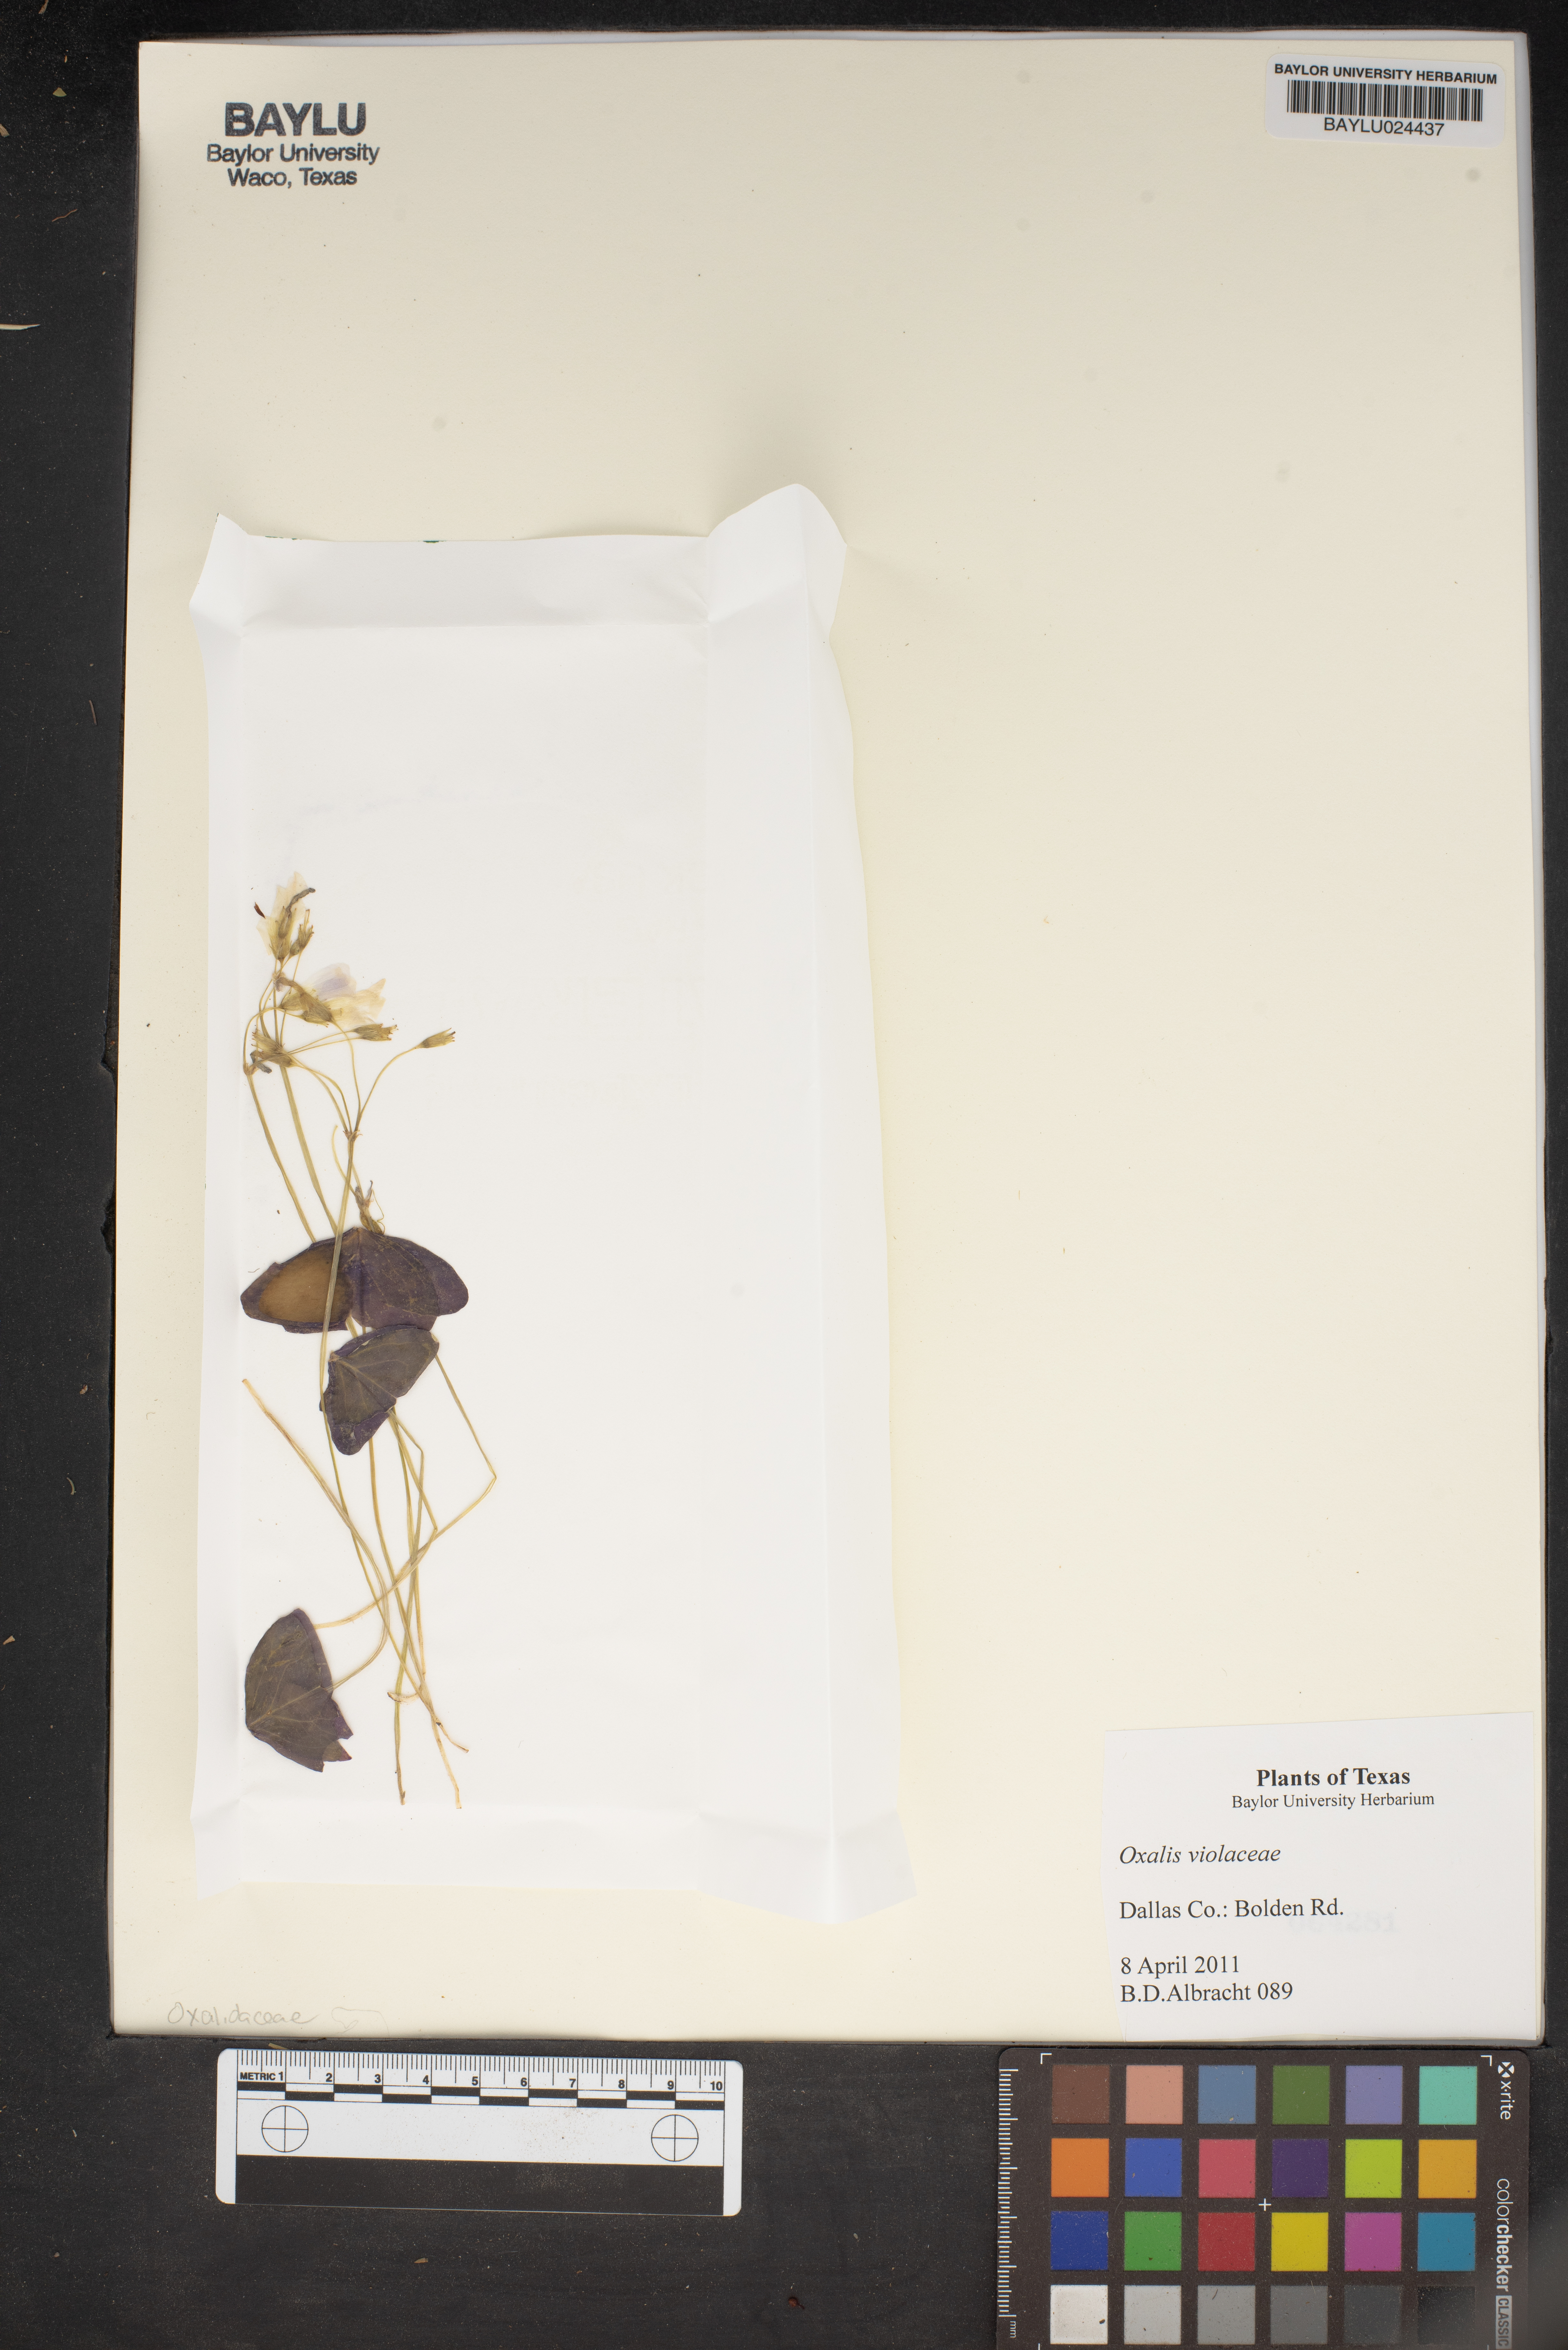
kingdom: Plantae
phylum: Tracheophyta
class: Magnoliopsida
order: Oxalidales
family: Oxalidaceae
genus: Oxalis
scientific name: Oxalis violacea
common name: Violet wood-sorrel
